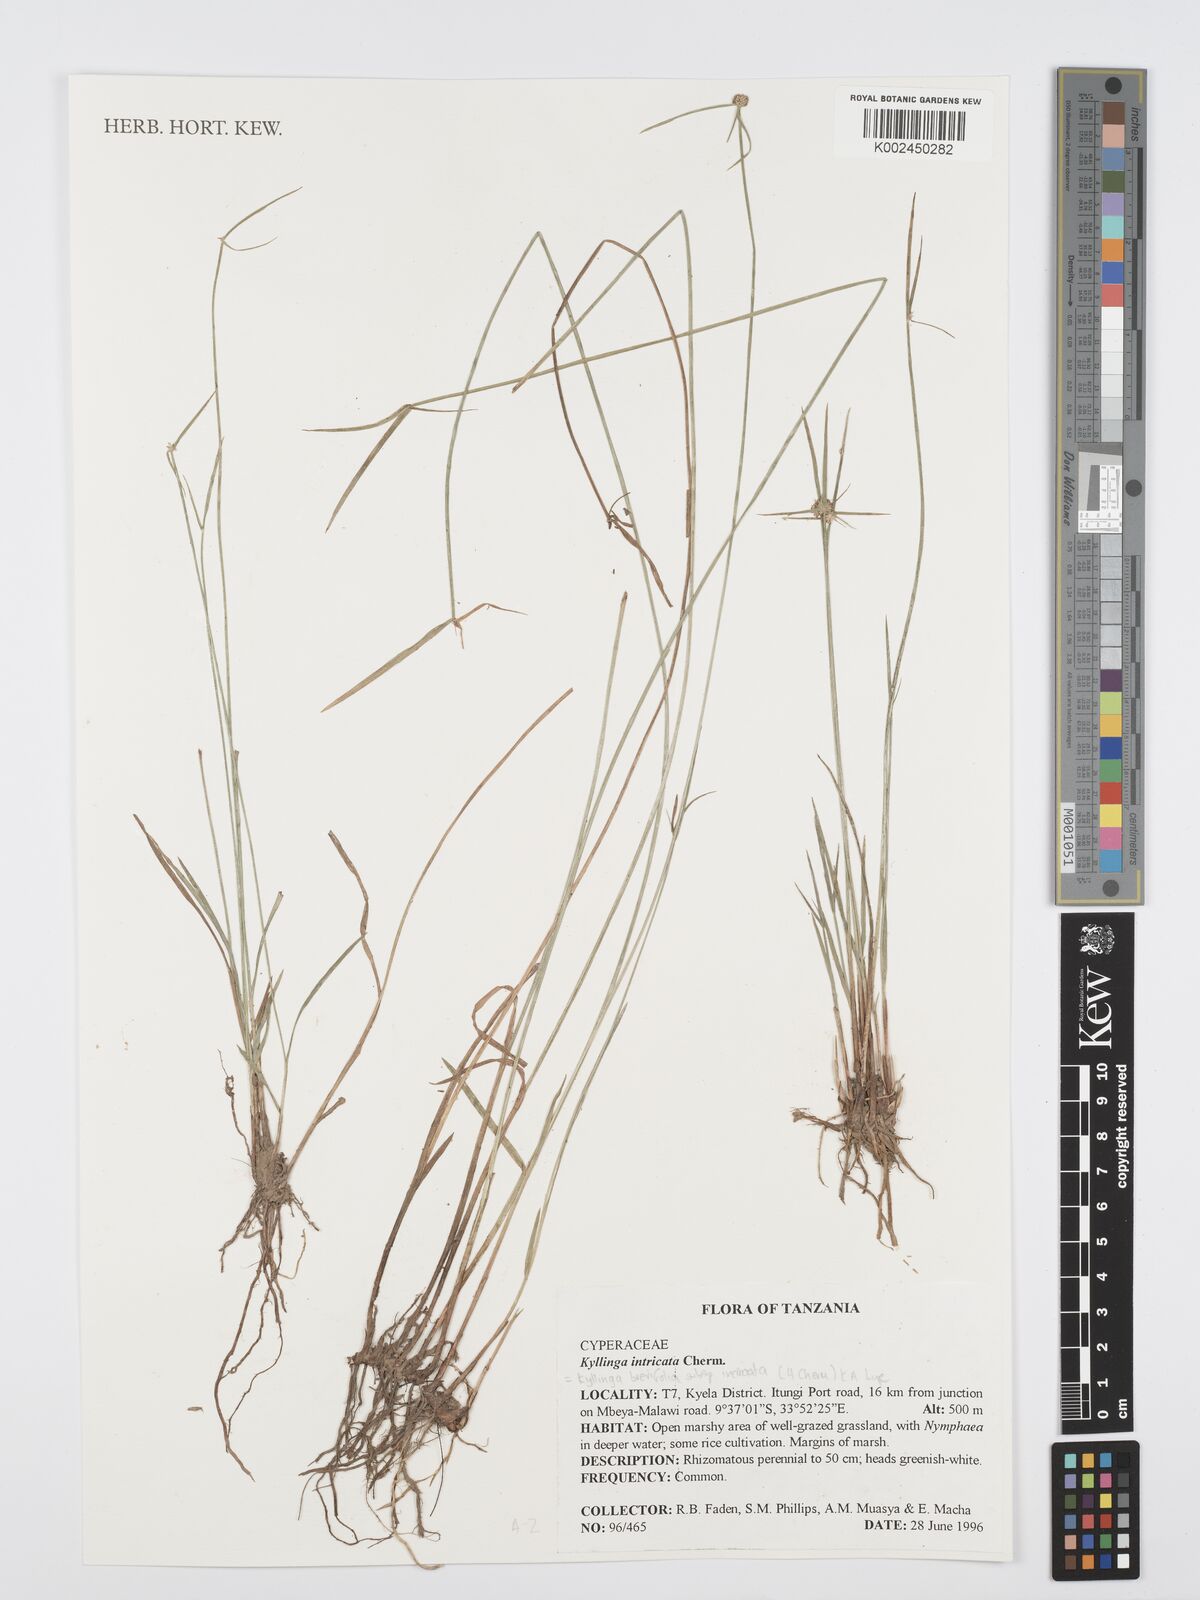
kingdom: Plantae
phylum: Tracheophyta
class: Liliopsida
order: Poales
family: Cyperaceae
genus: Cyperus
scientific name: Cyperus
